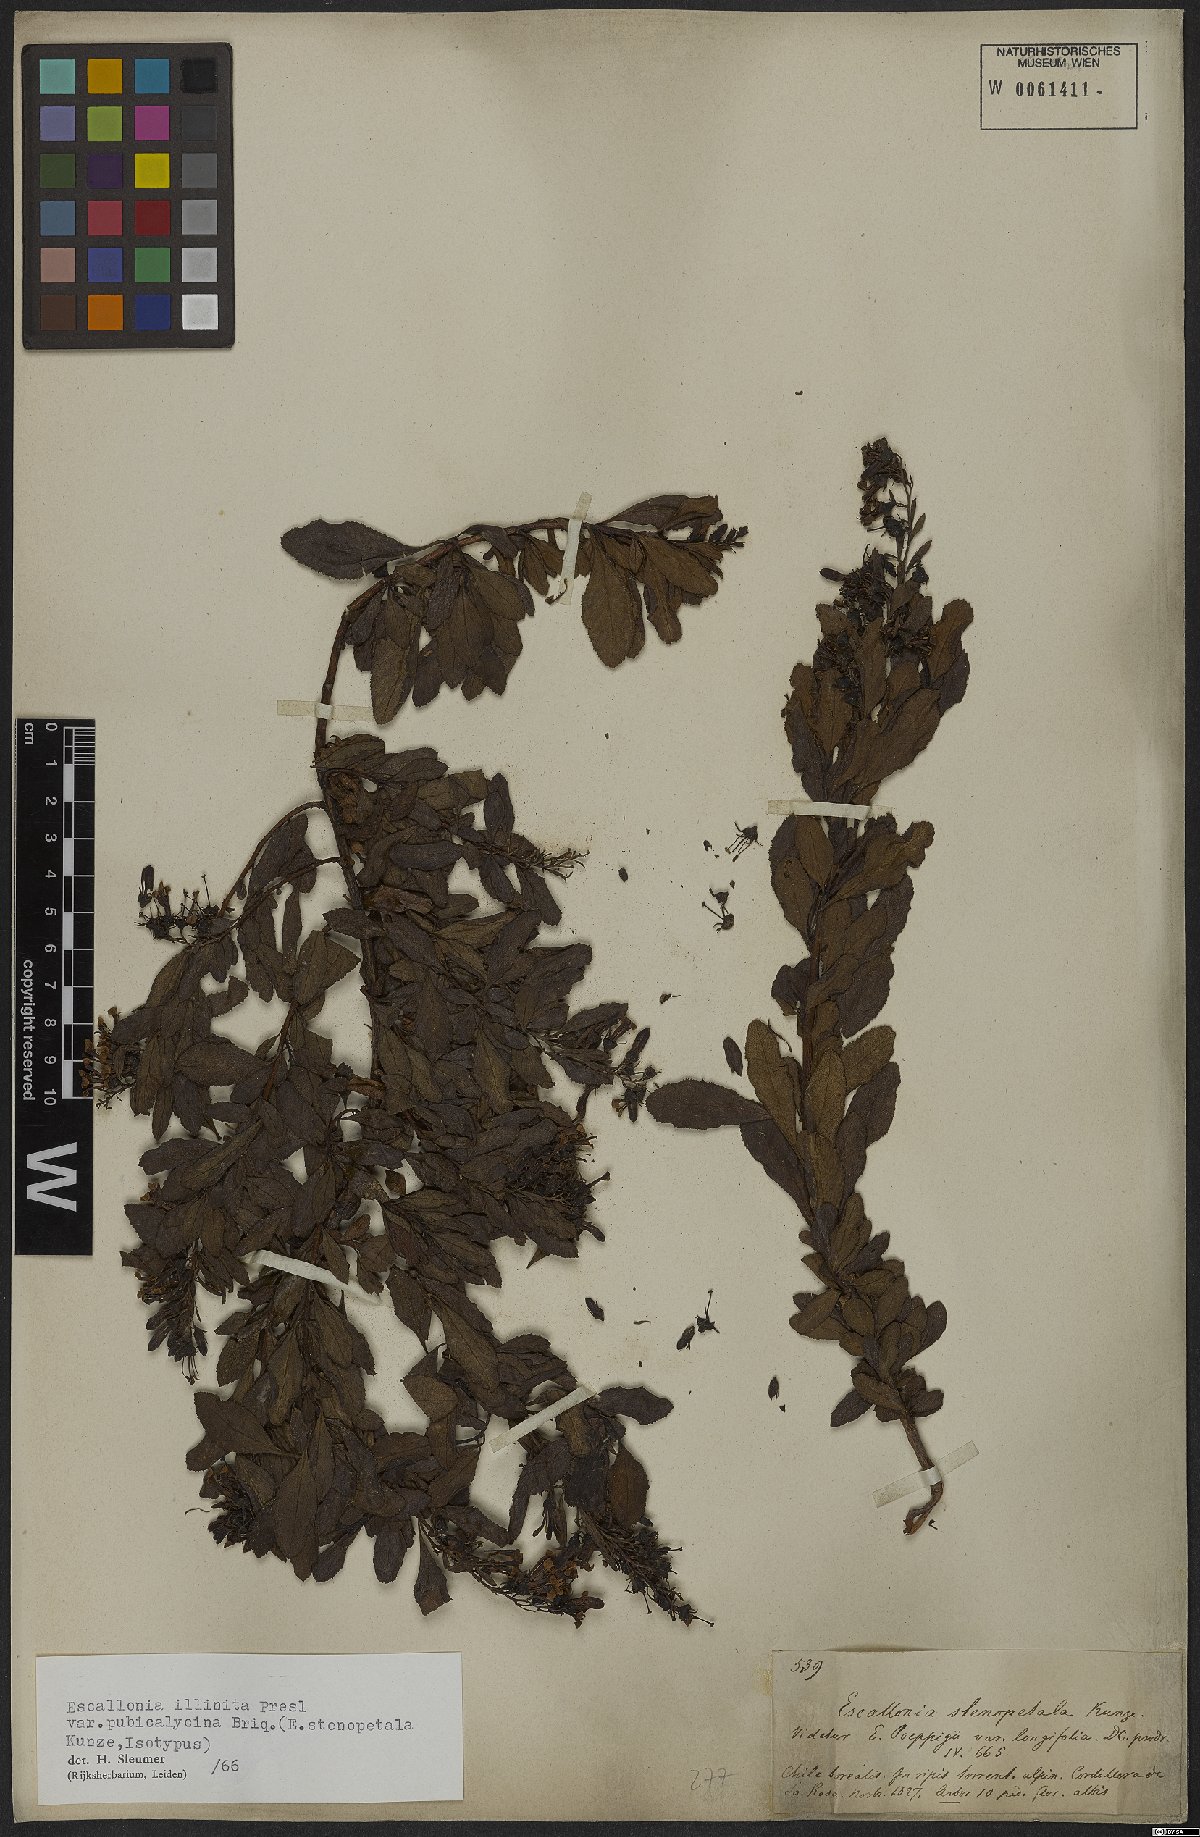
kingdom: Plantae
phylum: Tracheophyta
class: Magnoliopsida
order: Escalloniales
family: Escalloniaceae
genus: Escallonia
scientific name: Escallonia illinita
